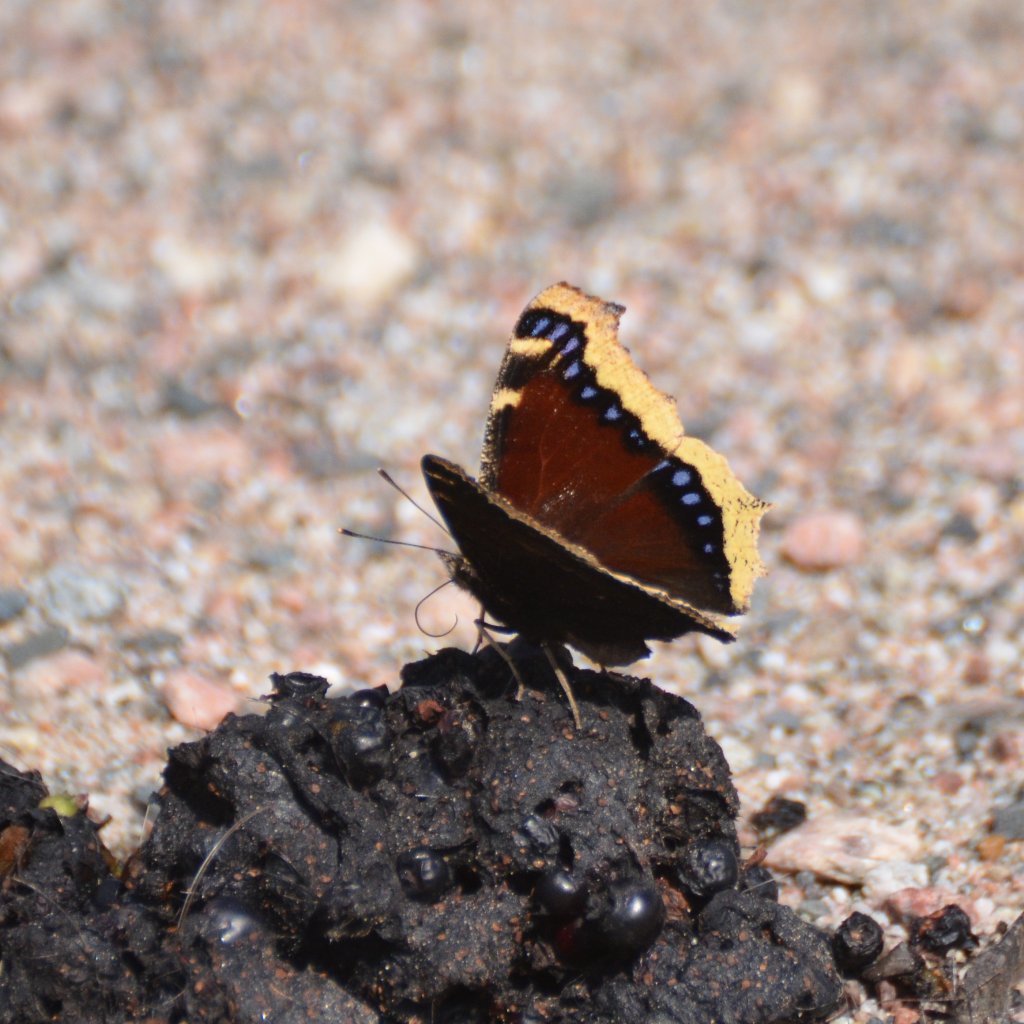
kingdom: Animalia
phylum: Arthropoda
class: Insecta
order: Lepidoptera
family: Nymphalidae
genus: Nymphalis
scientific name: Nymphalis antiopa
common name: Mourning Cloak
